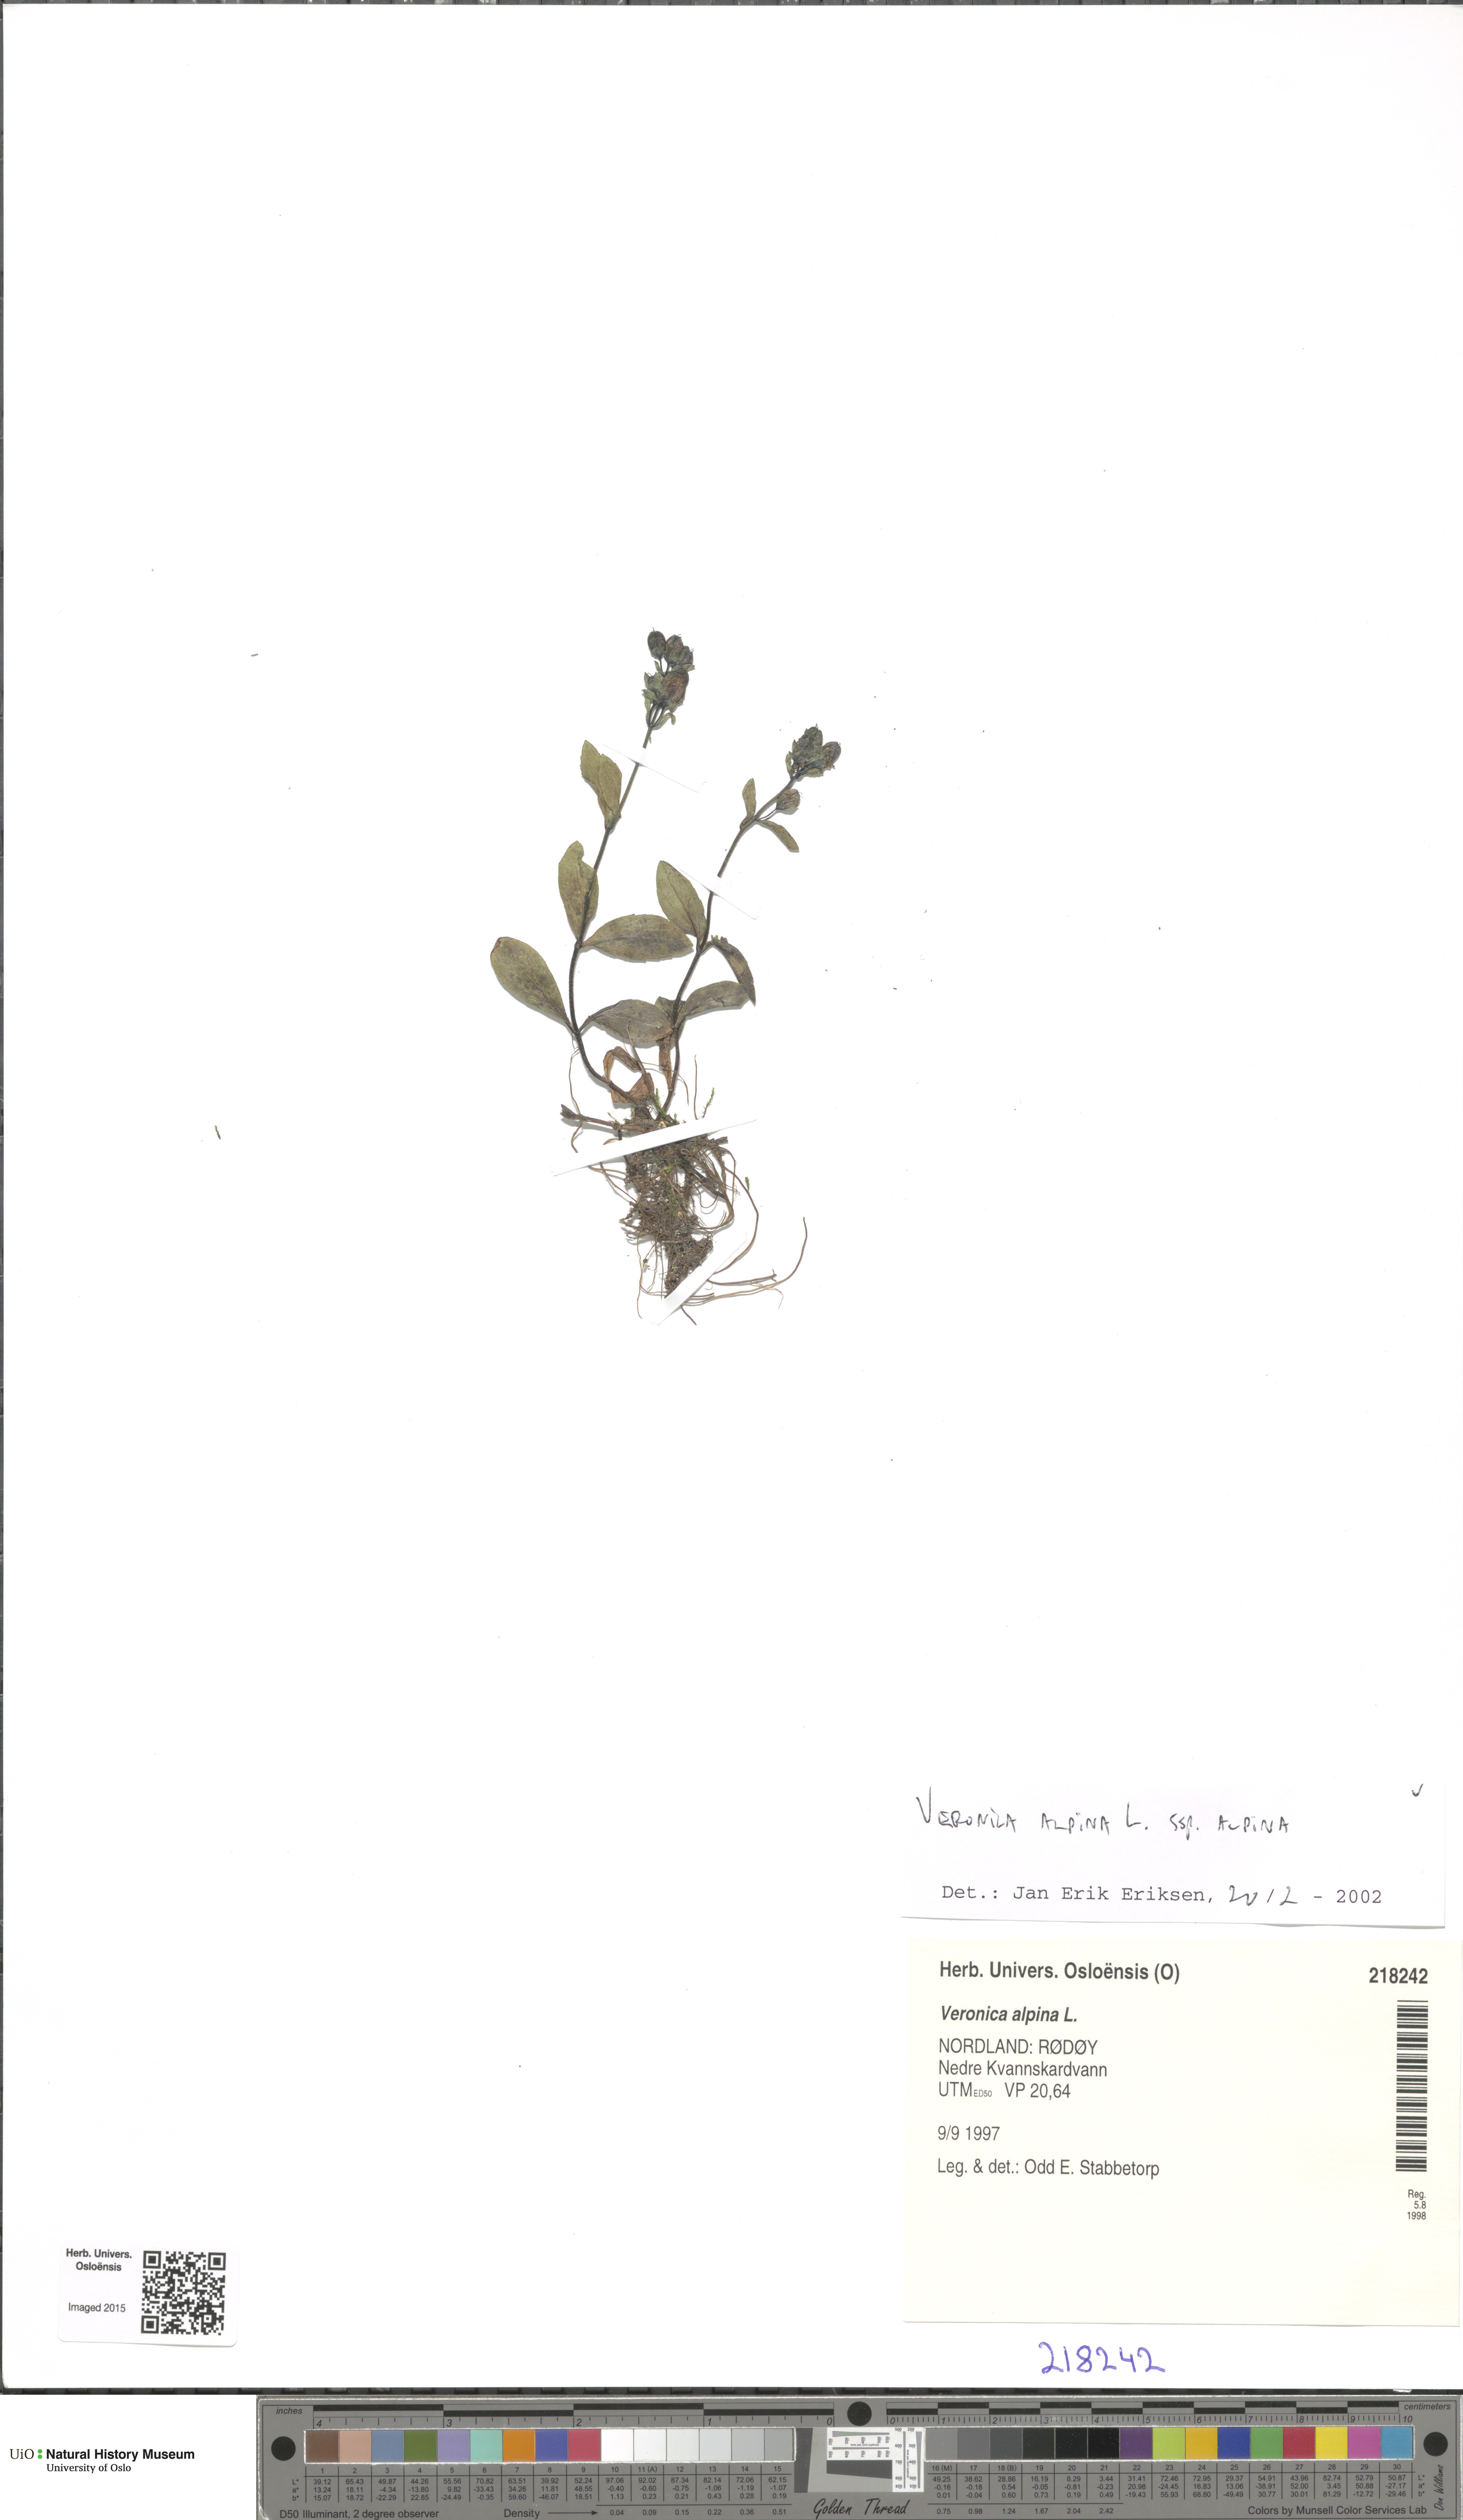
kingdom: Plantae
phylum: Tracheophyta
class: Magnoliopsida
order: Lamiales
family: Plantaginaceae
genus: Veronica
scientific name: Veronica alpina
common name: Alpine speedwell
